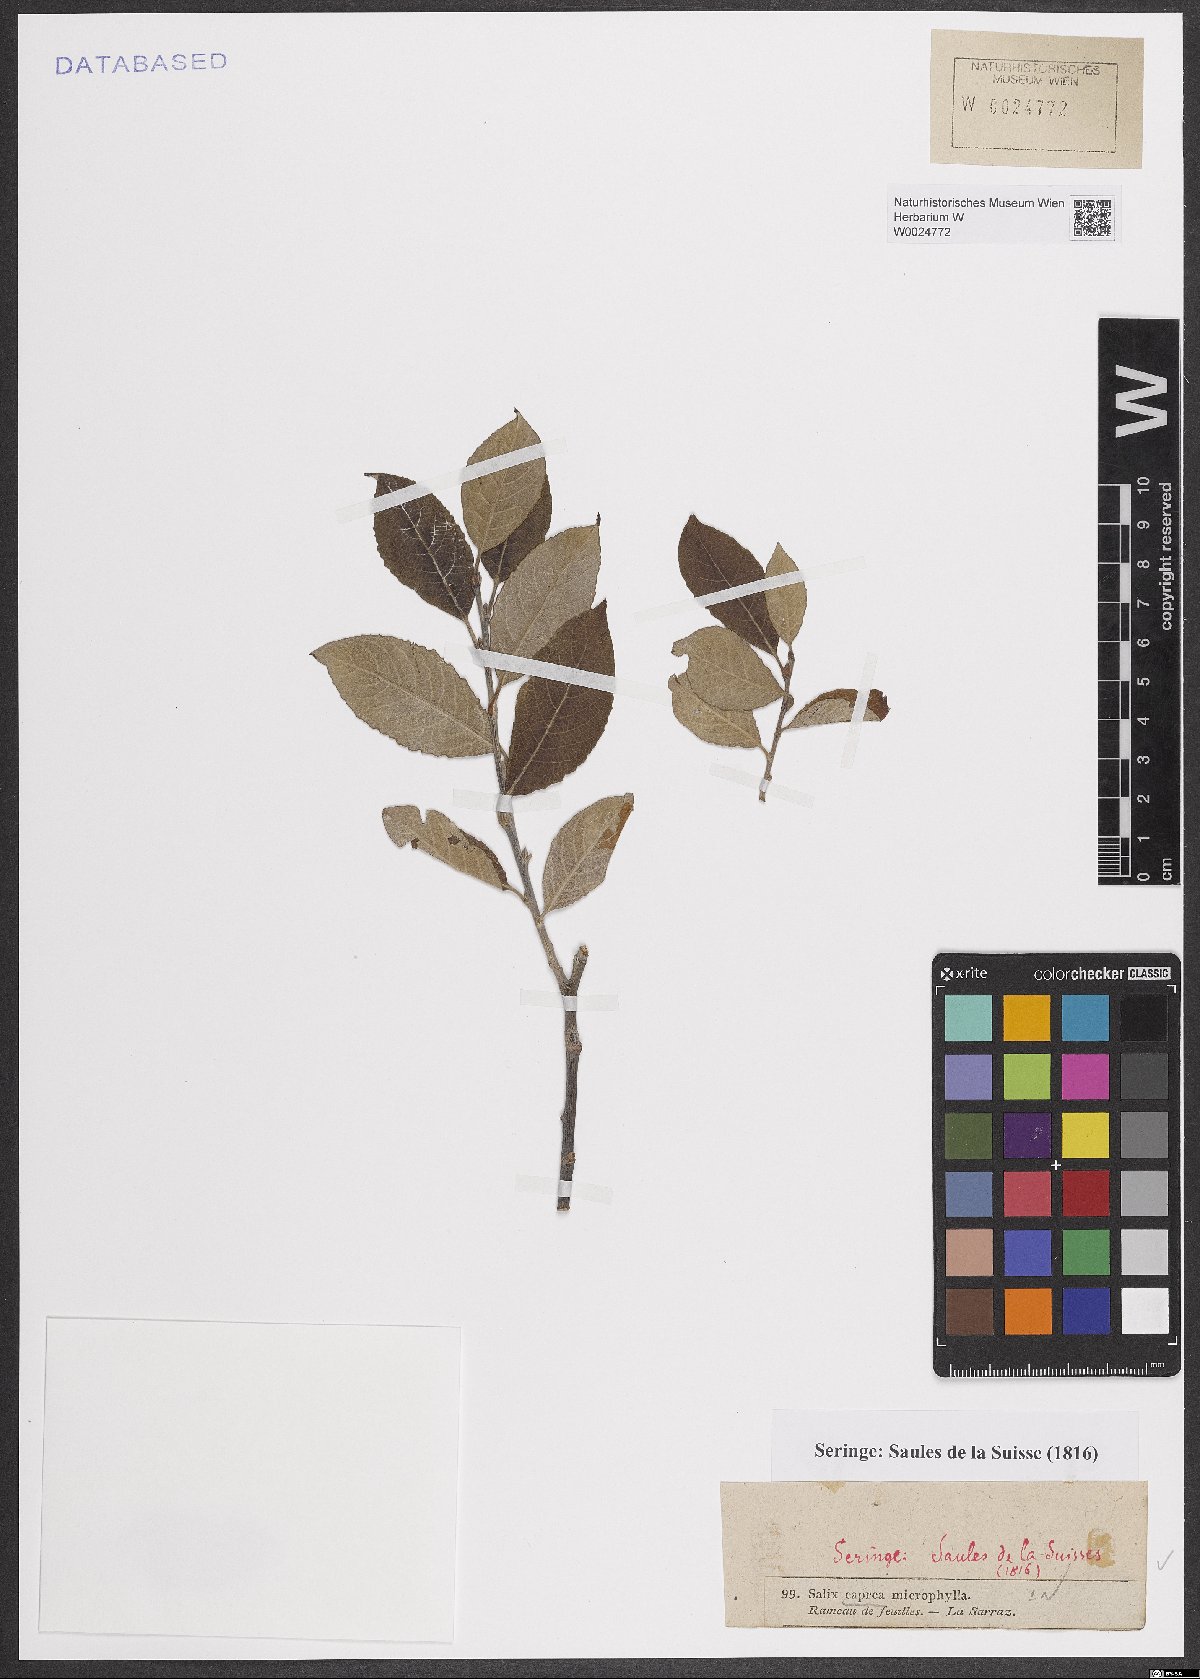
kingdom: Plantae
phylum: Tracheophyta
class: Magnoliopsida
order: Malpighiales
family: Salicaceae
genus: Salix
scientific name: Salix caprea
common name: Goat willow
